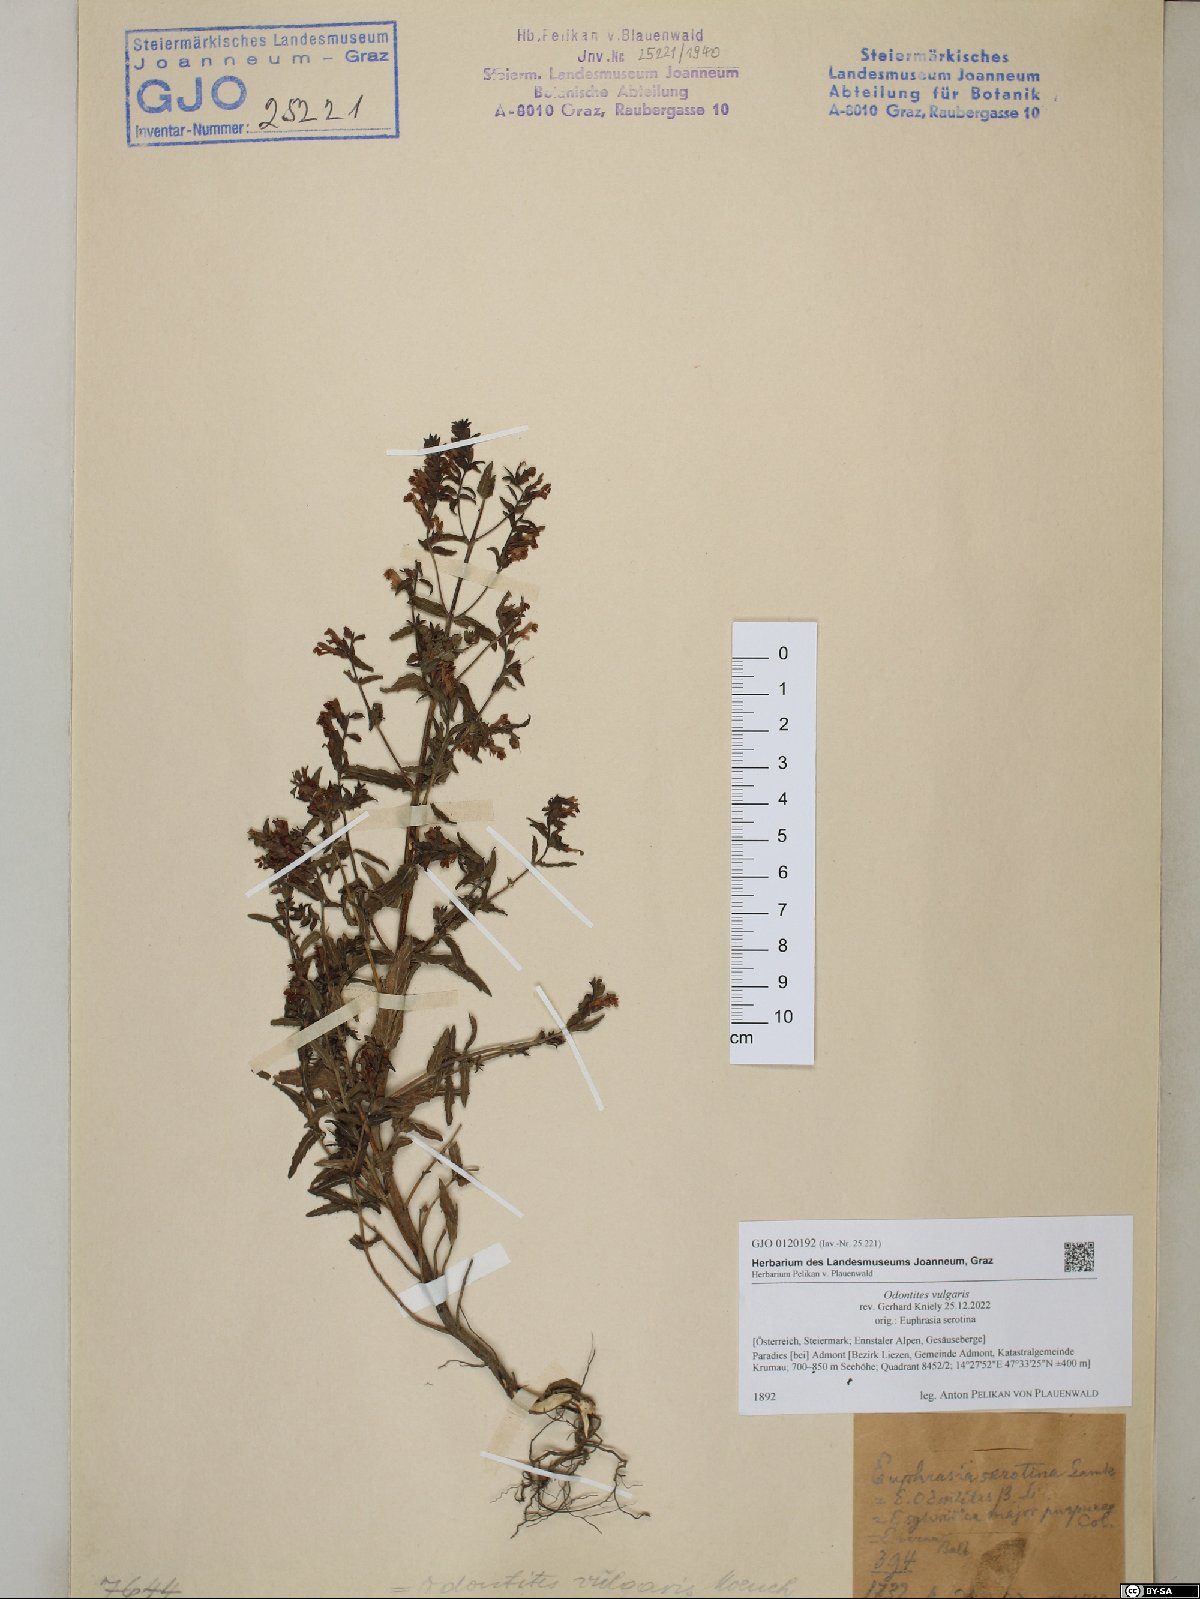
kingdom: Plantae
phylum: Tracheophyta
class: Magnoliopsida
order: Lamiales
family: Orobanchaceae
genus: Odontites
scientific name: Odontites vulgaris
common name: Broomrape
